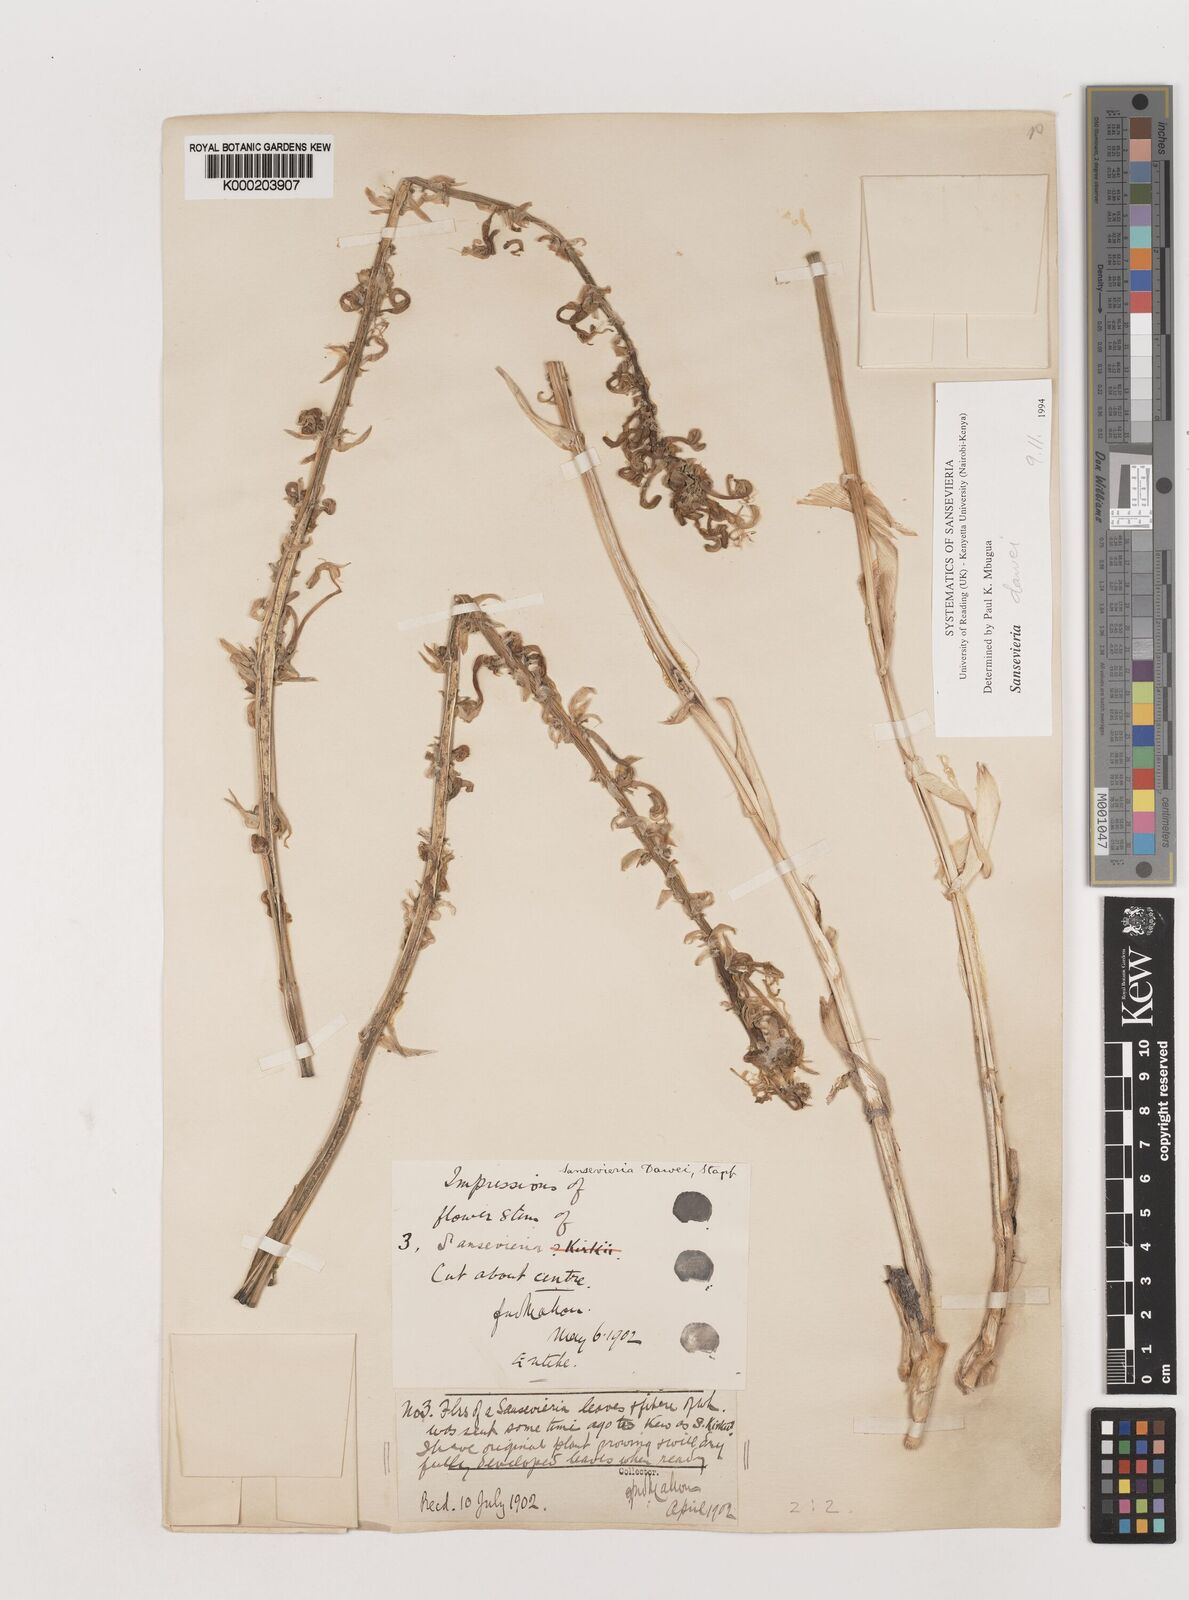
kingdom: Plantae
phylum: Tracheophyta
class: Liliopsida
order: Asparagales
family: Asparagaceae
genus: Dracaena
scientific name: Dracaena dawei
